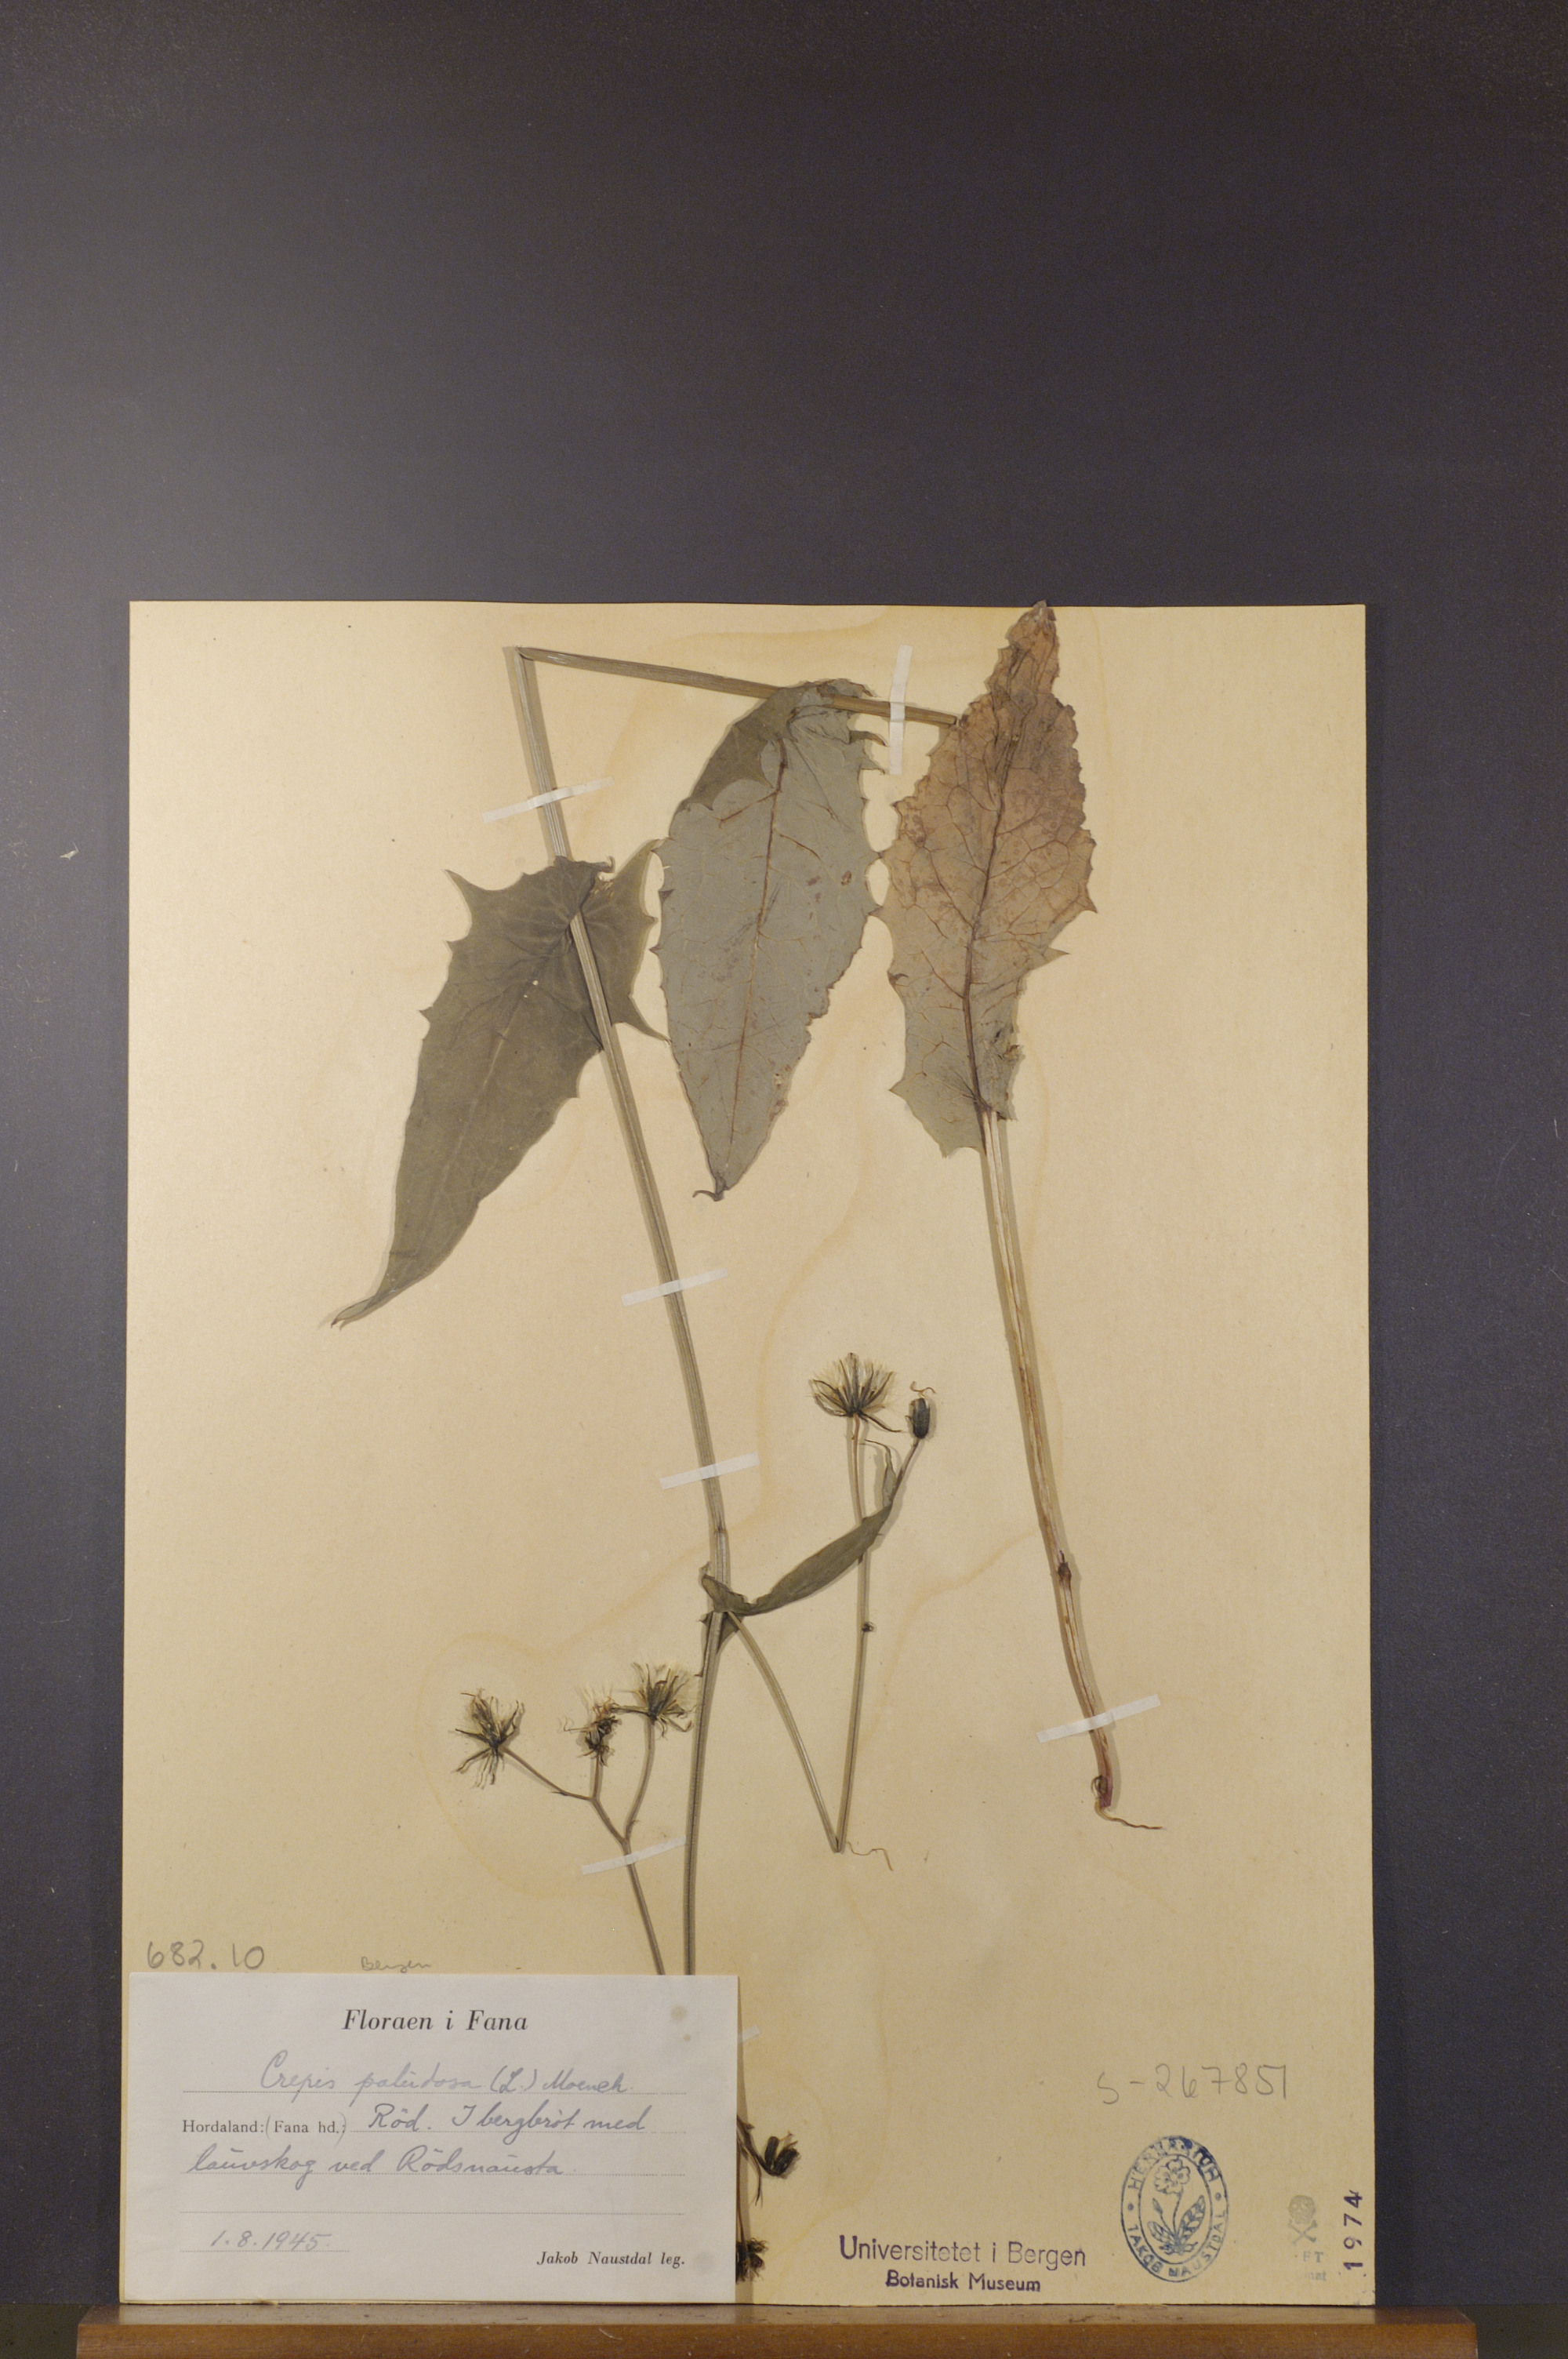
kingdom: Plantae
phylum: Tracheophyta
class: Magnoliopsida
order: Asterales
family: Asteraceae
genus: Crepis
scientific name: Crepis paludosa
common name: Marsh hawk's-beard
